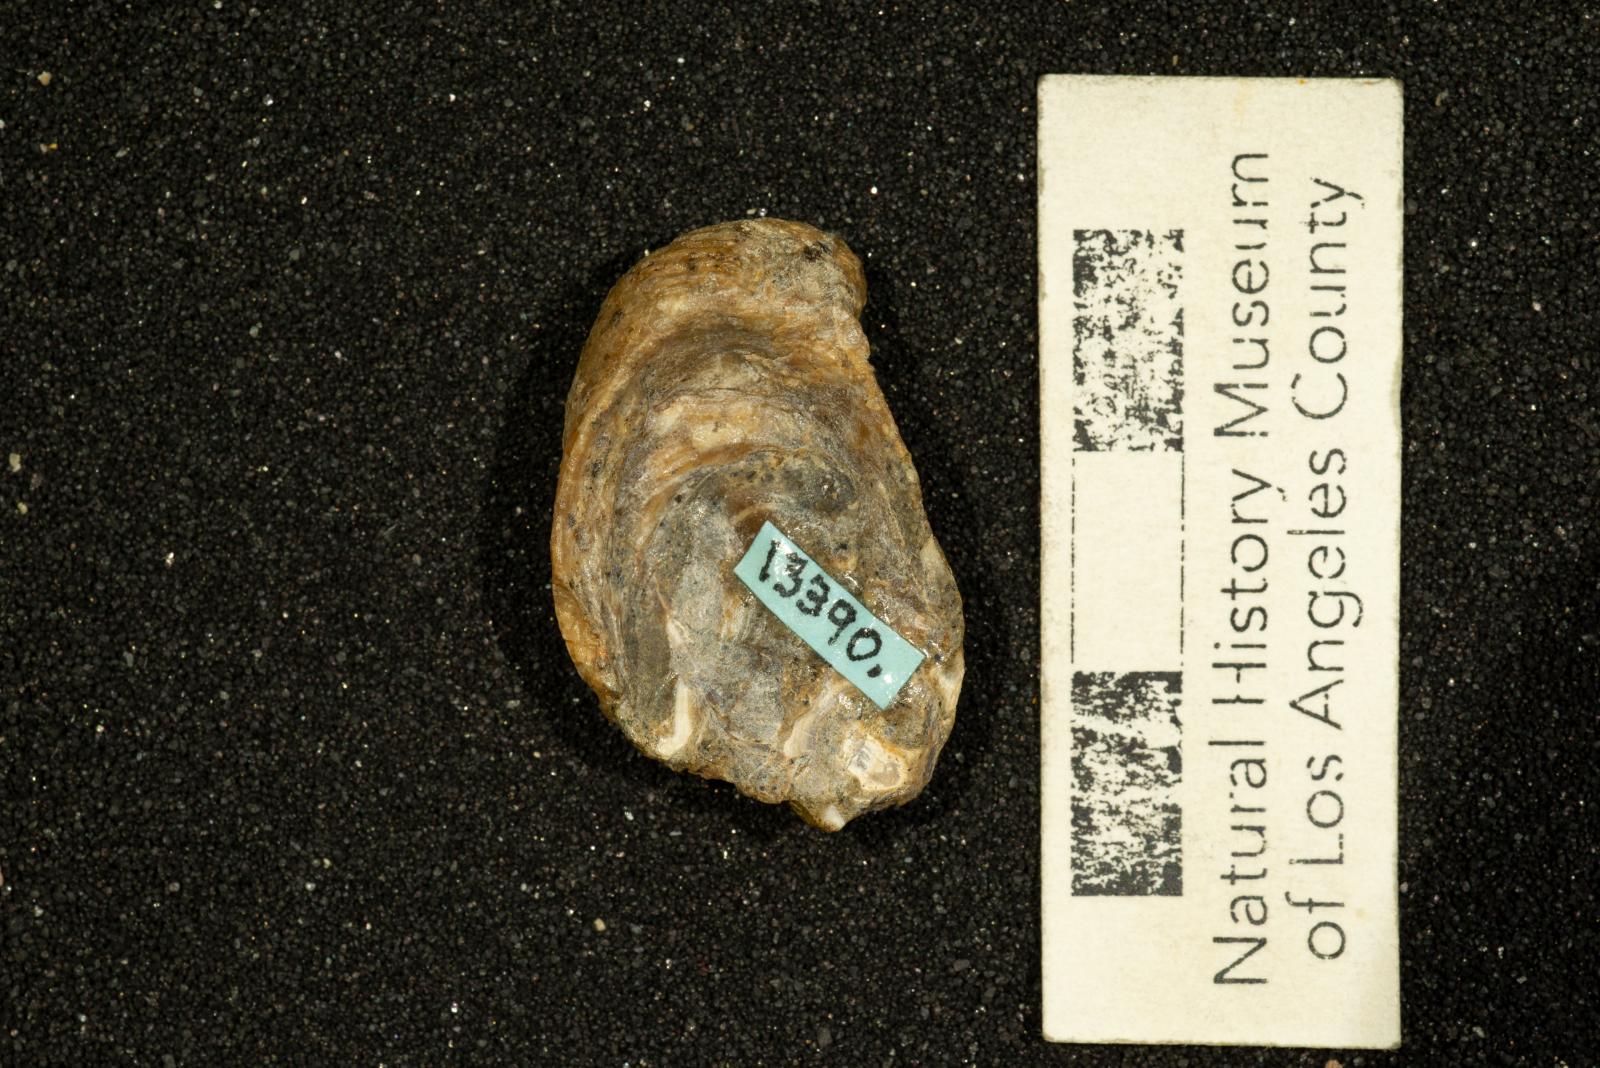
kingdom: Animalia
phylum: Mollusca
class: Gastropoda
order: Littorinimorpha
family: Calyptraeidae
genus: Lysis
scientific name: Lysis Stomatia suciensis
